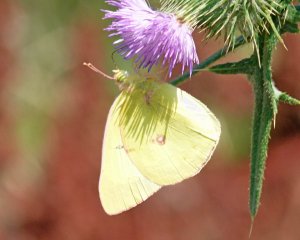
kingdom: Animalia
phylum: Arthropoda
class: Insecta
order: Lepidoptera
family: Pieridae
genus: Colias
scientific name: Colias philodice
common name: Clouded Sulphur
